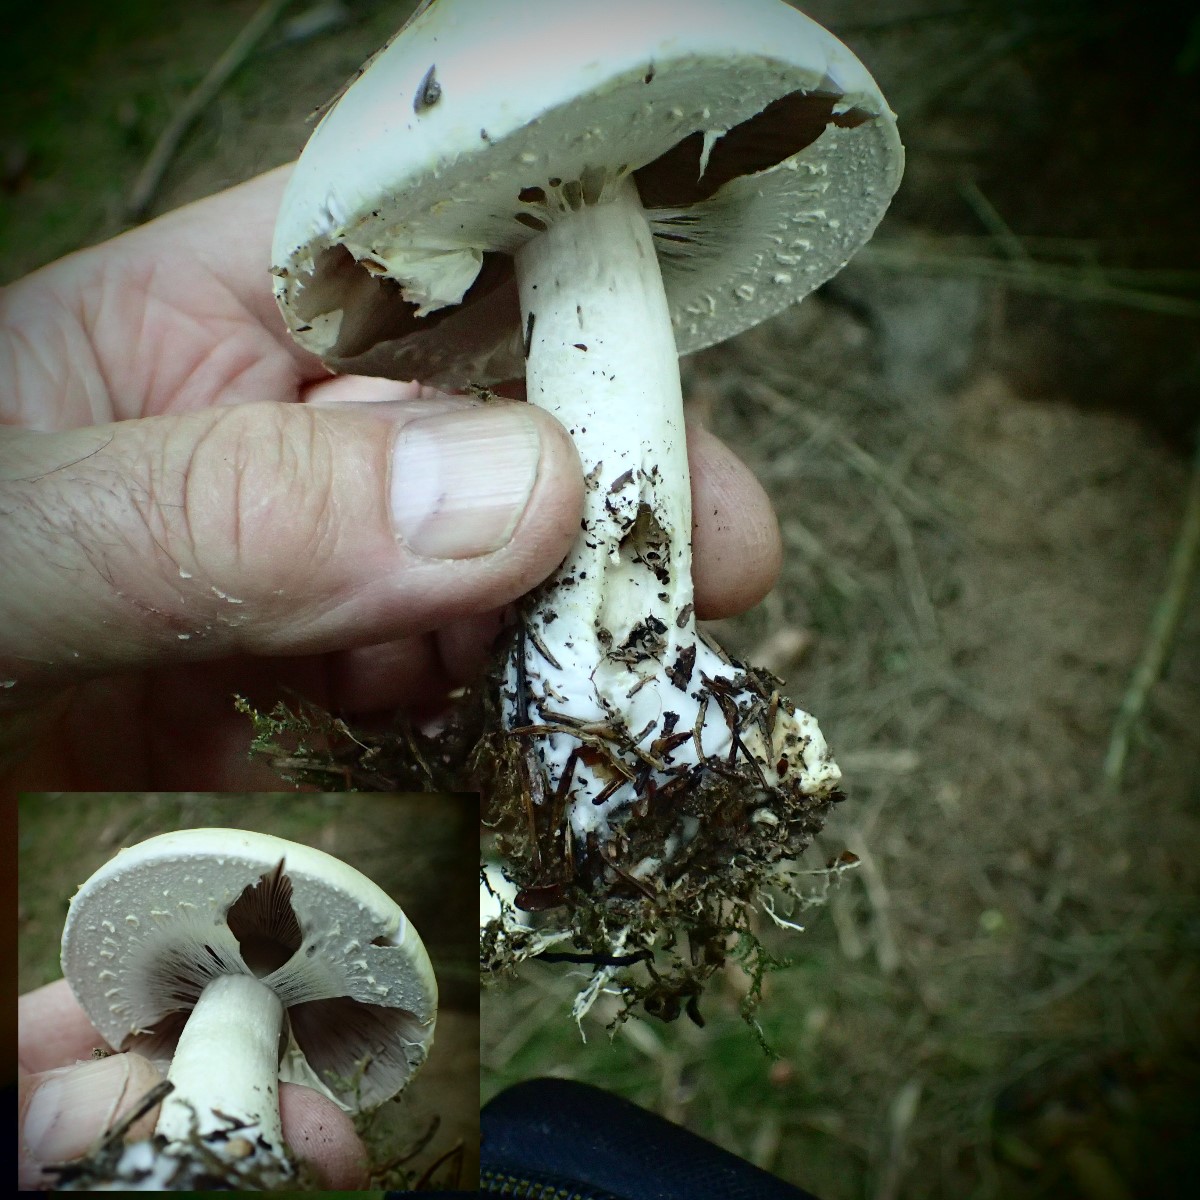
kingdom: Fungi
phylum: Basidiomycota
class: Agaricomycetes
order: Agaricales
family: Agaricaceae
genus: Agaricus
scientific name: Agaricus sylvicola
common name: gulhvid champignon
